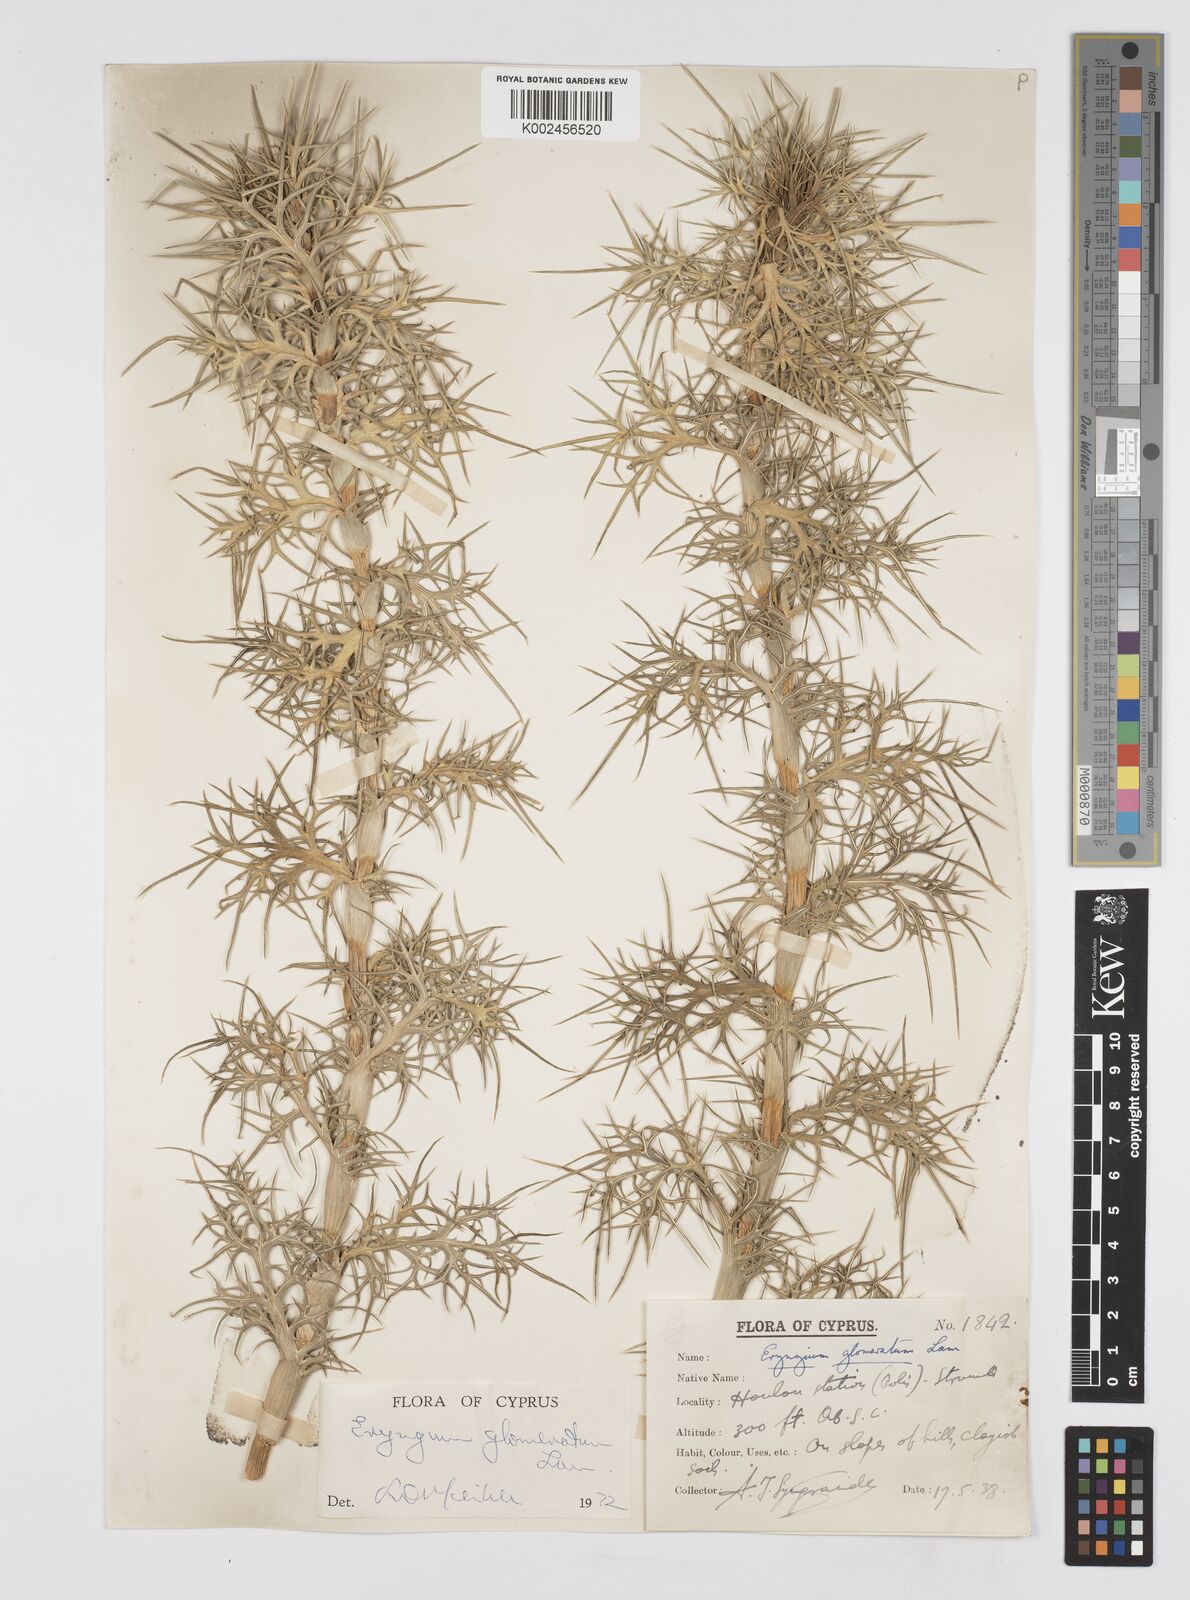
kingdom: Plantae
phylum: Tracheophyta
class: Magnoliopsida
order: Apiales
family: Apiaceae
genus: Eryngium
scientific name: Eryngium glomeratum
